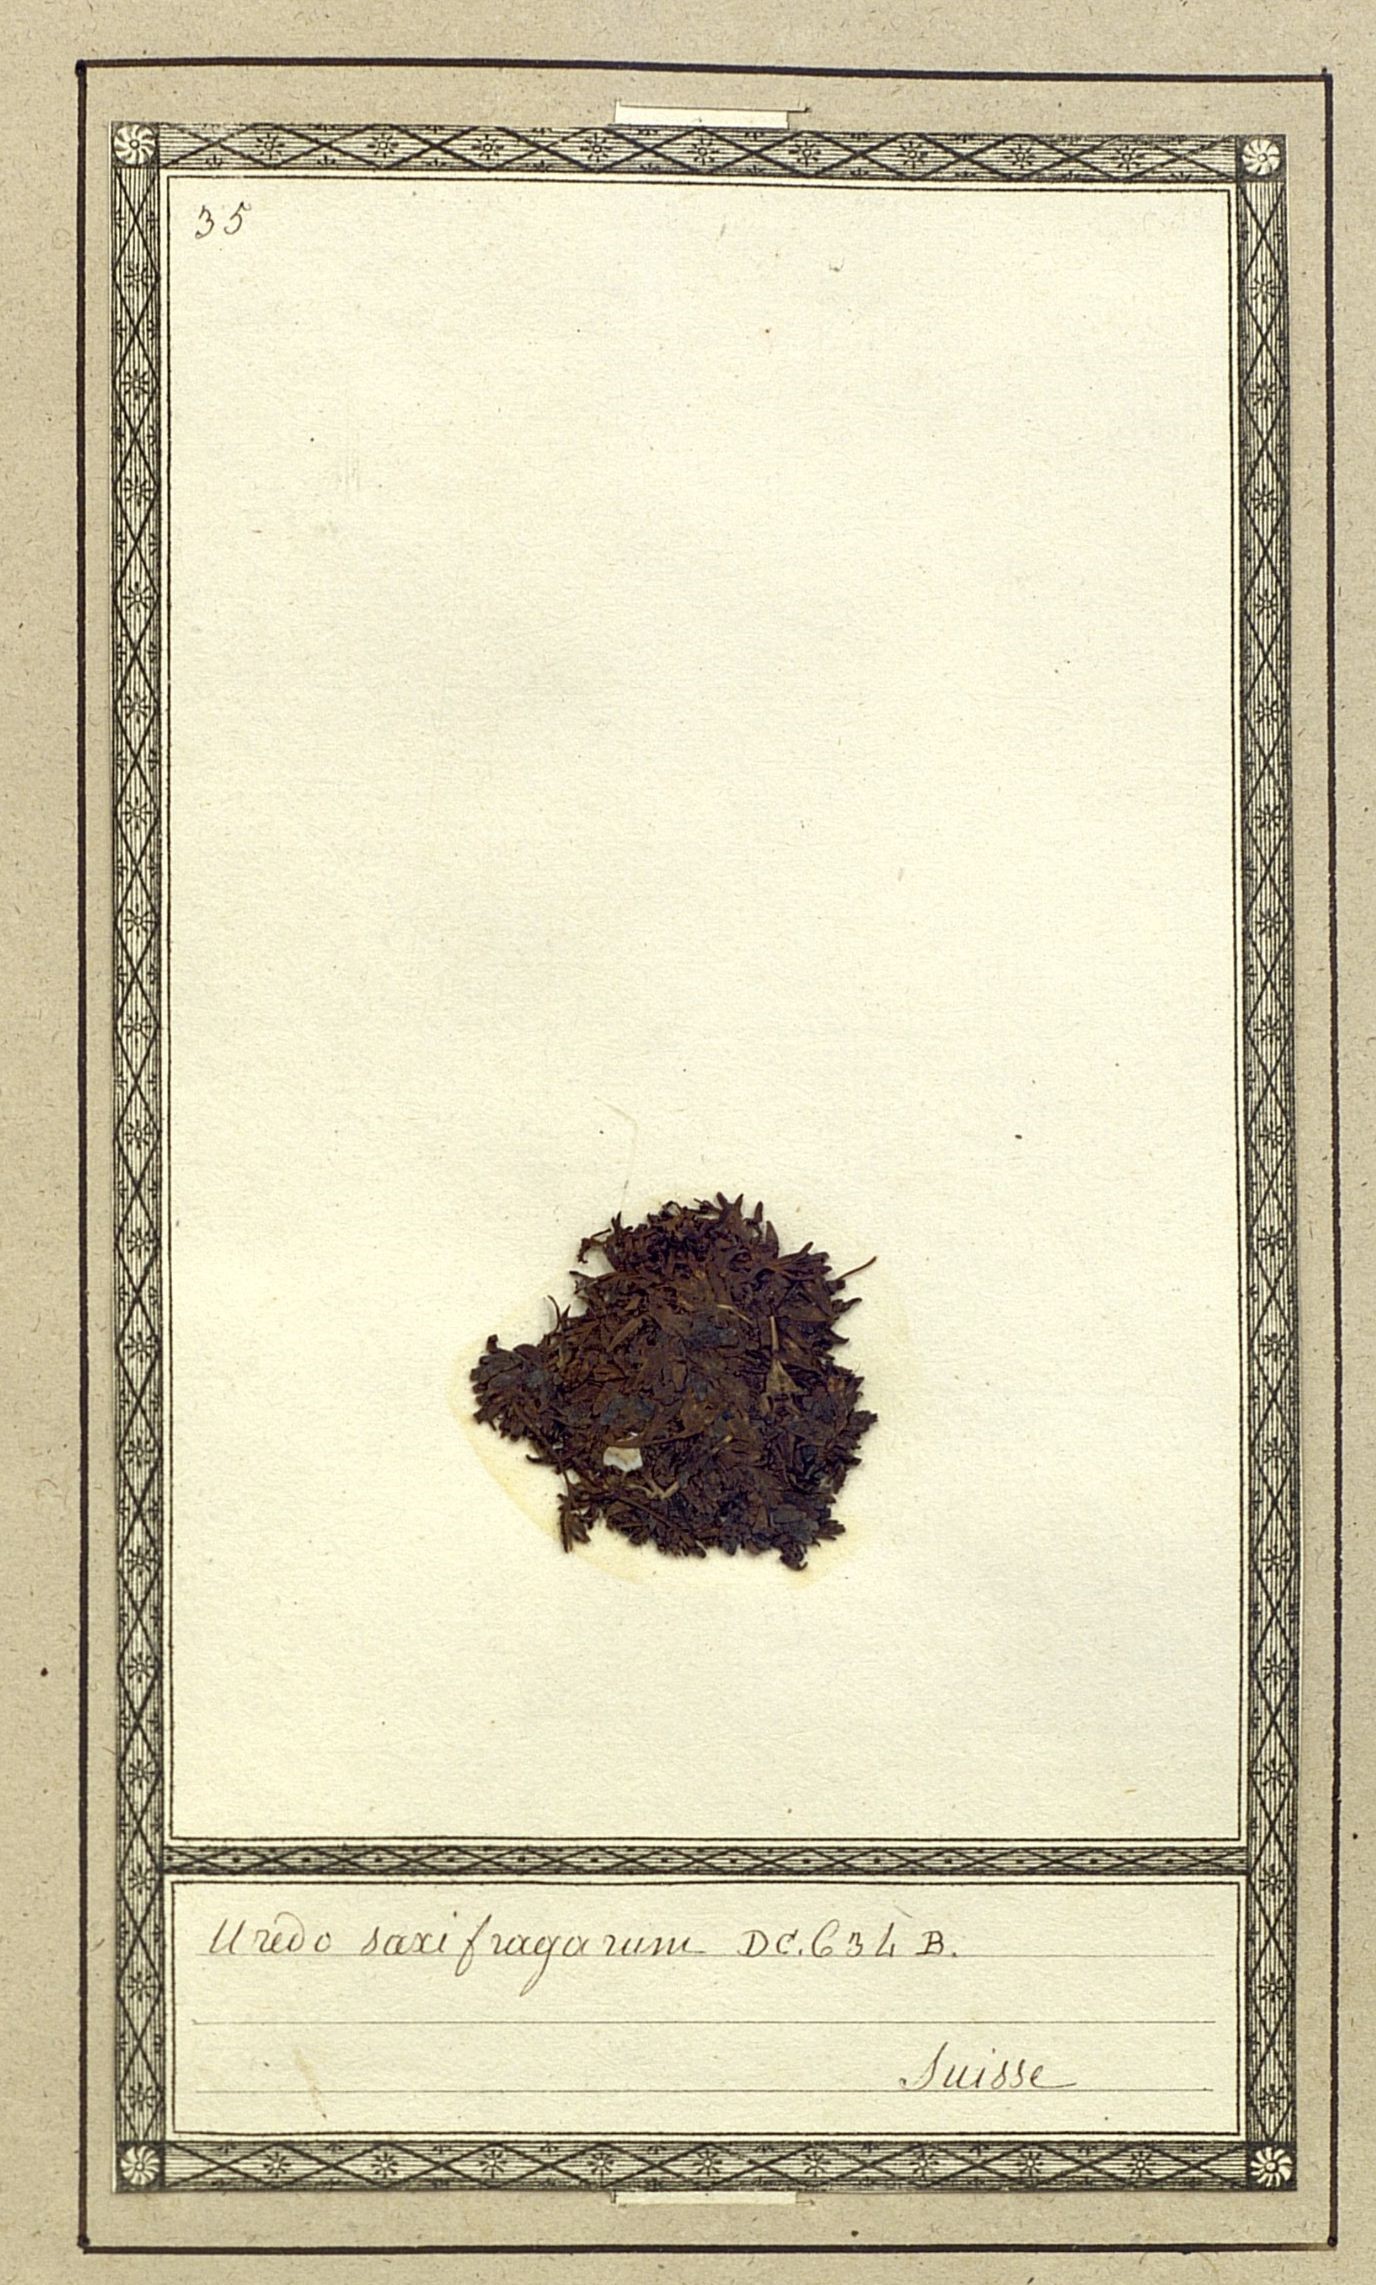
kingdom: Fungi
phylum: Basidiomycota
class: Pucciniomycetes
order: Pucciniales
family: Melampsoraceae
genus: Melampsora
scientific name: Melampsora vernalis
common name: Saxifrage rust
